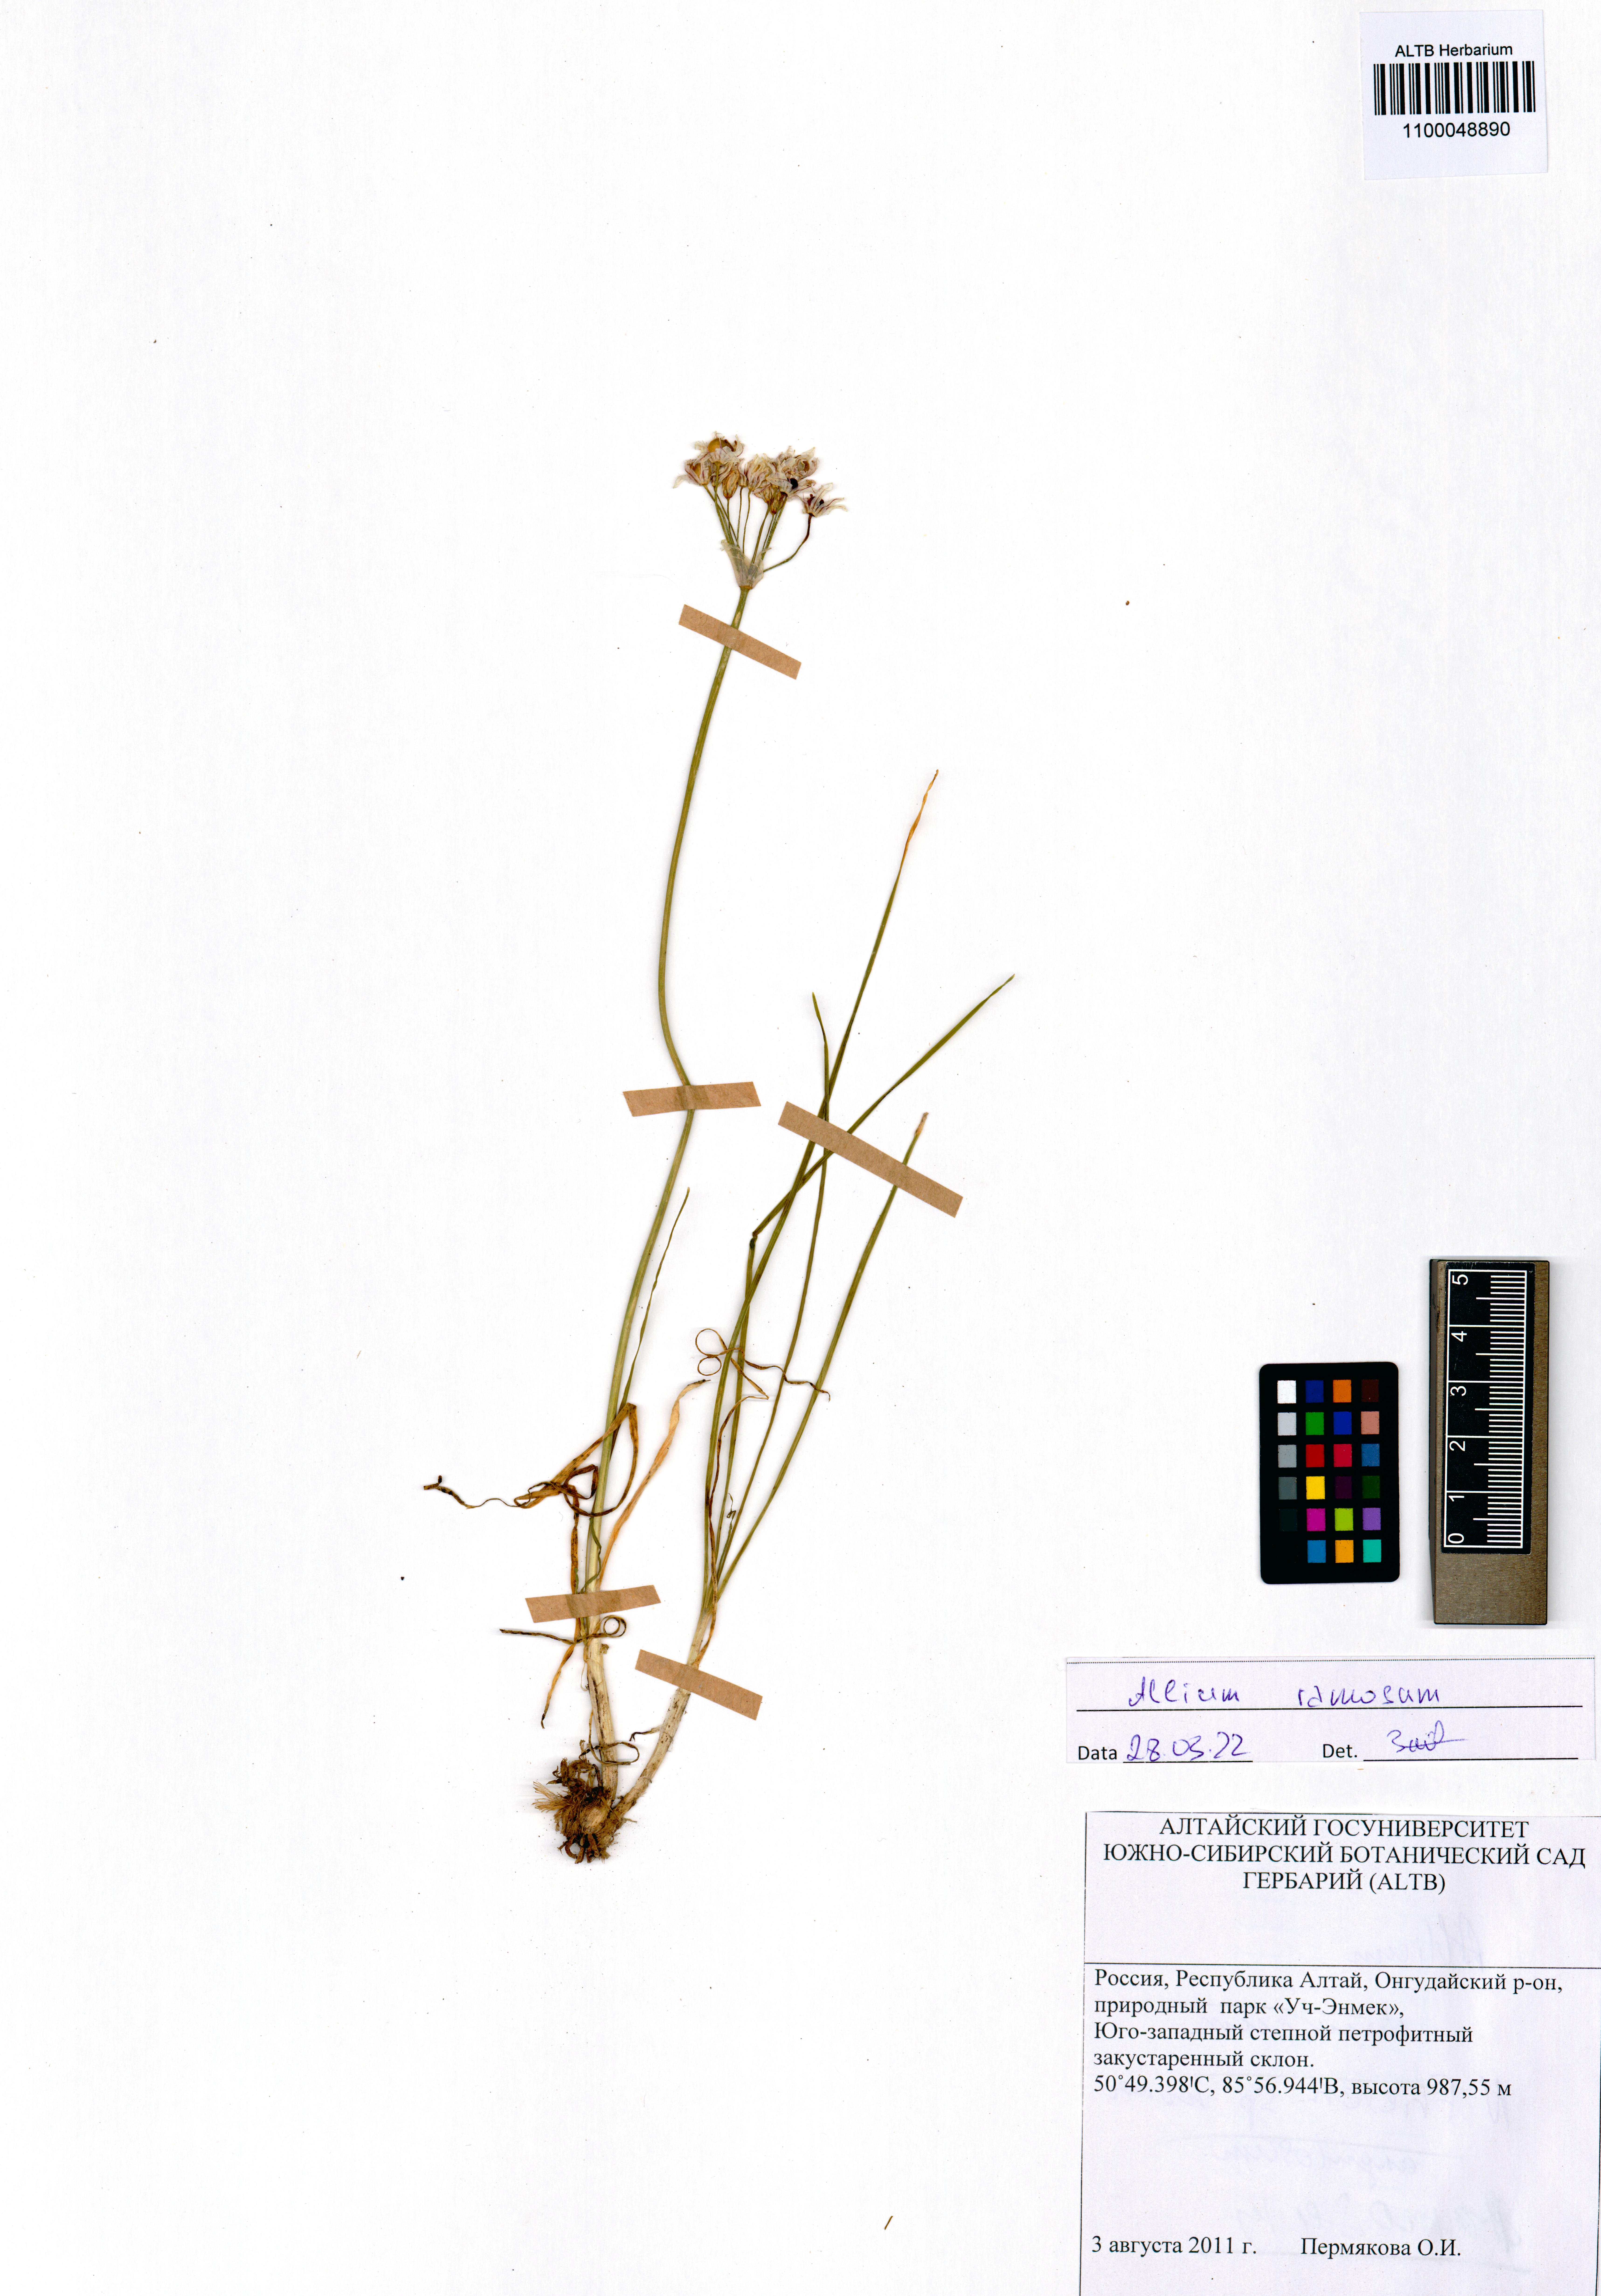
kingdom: Plantae
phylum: Tracheophyta
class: Liliopsida
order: Asparagales
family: Amaryllidaceae
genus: Allium
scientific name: Allium ramosum
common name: Fragrant garlic
